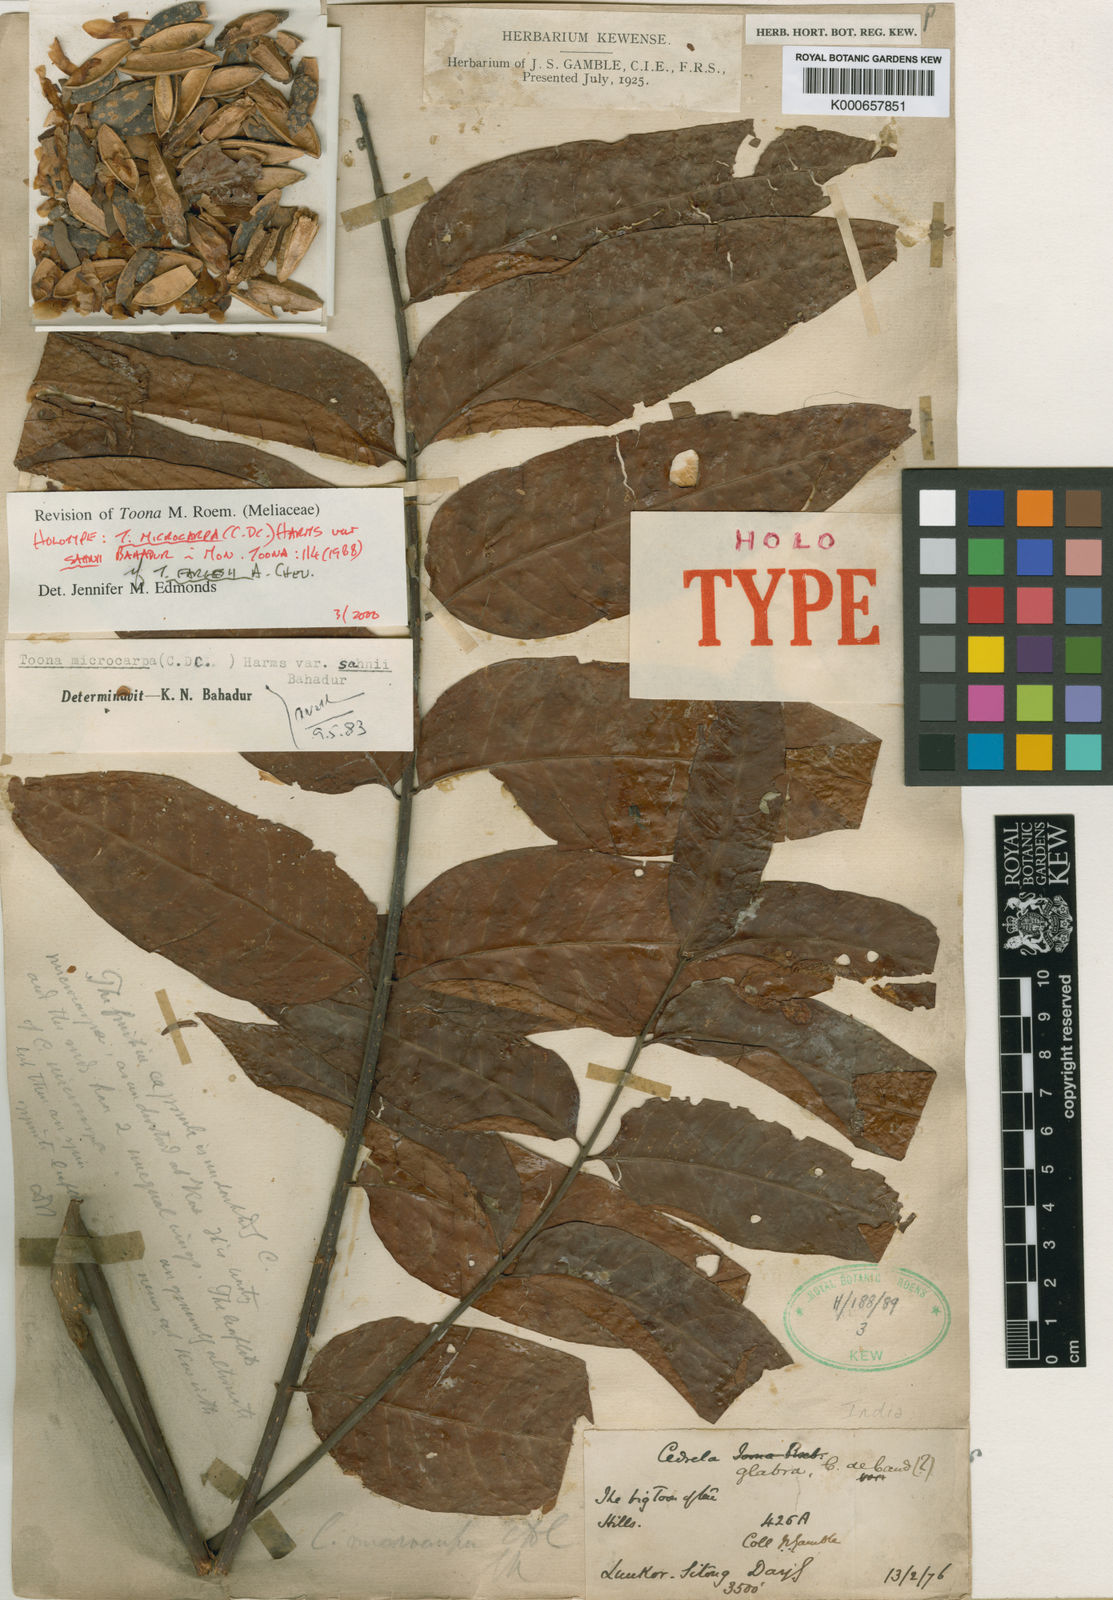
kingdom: Plantae
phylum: Tracheophyta
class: Magnoliopsida
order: Sapindales
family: Meliaceae
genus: Toona
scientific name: Toona microcarpa
